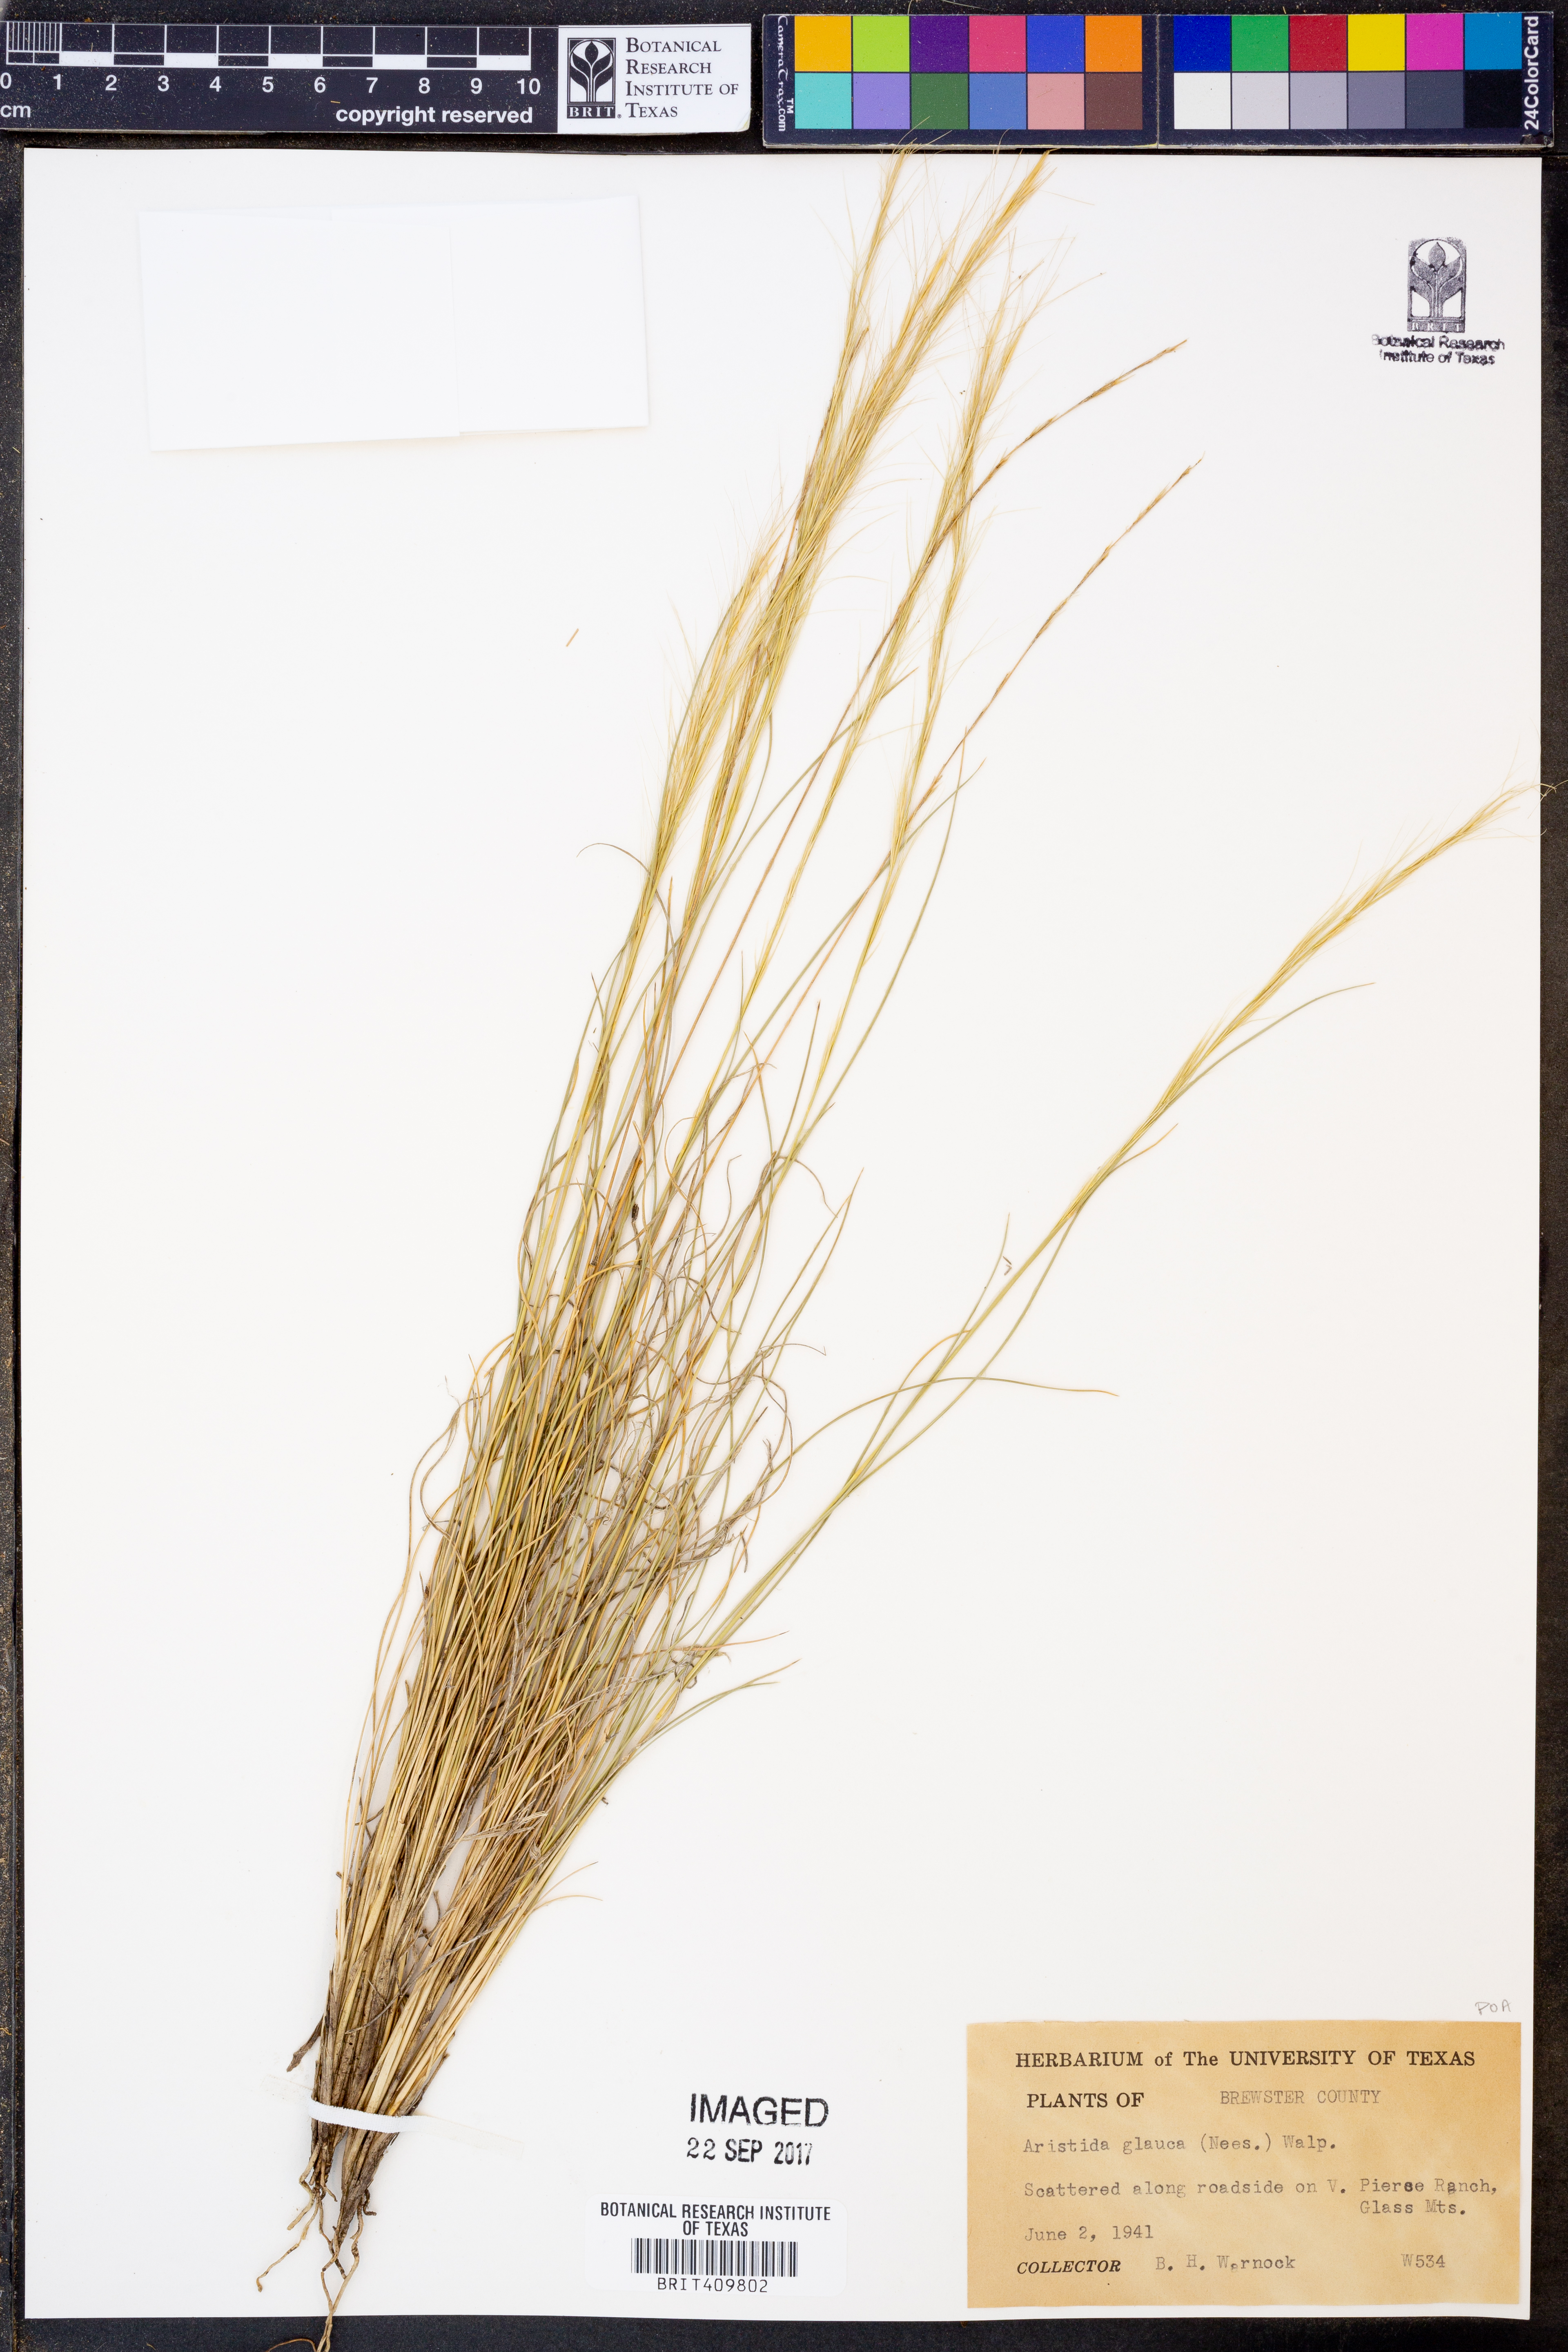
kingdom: Plantae
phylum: Tracheophyta
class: Liliopsida
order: Poales
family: Poaceae
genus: Aristida
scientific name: Aristida glauca
